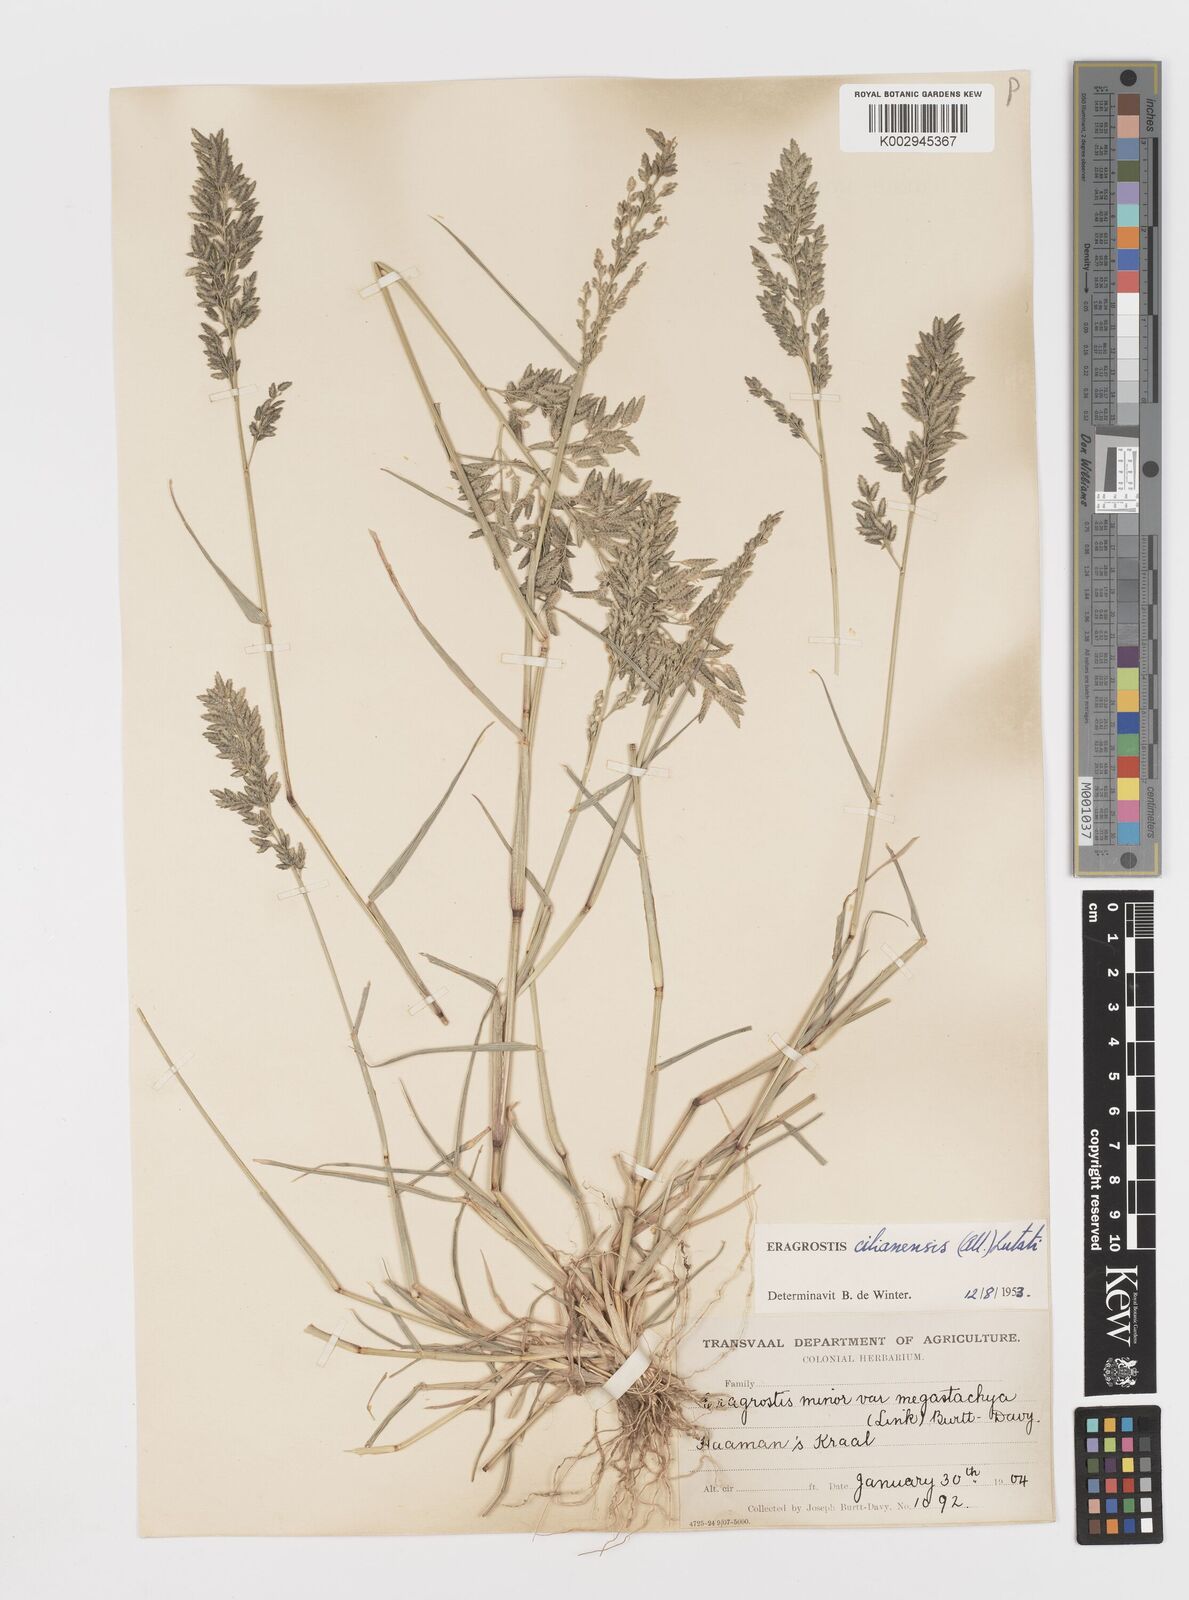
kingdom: Plantae
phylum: Tracheophyta
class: Liliopsida
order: Poales
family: Poaceae
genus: Eragrostis
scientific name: Eragrostis cilianensis
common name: Stinkgrass
